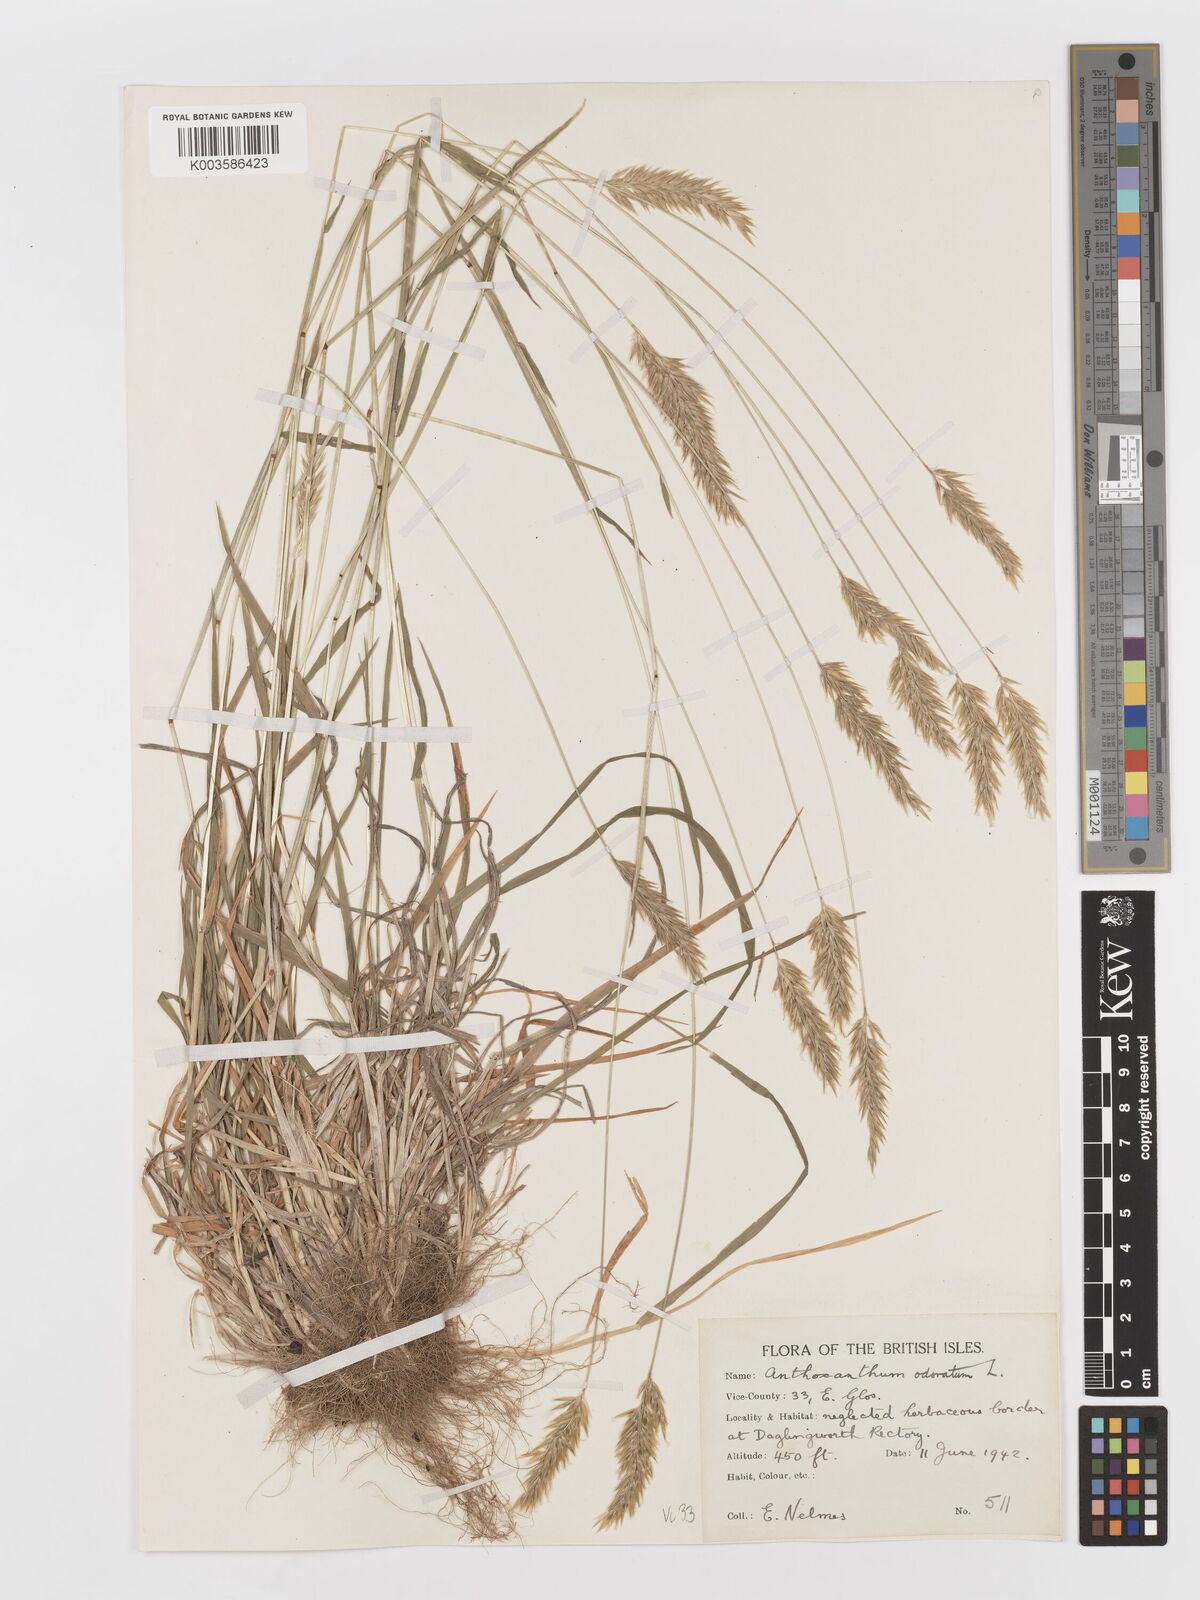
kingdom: Plantae
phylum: Tracheophyta
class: Liliopsida
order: Poales
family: Poaceae
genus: Anthoxanthum
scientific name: Anthoxanthum odoratum
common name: Sweet vernalgrass
